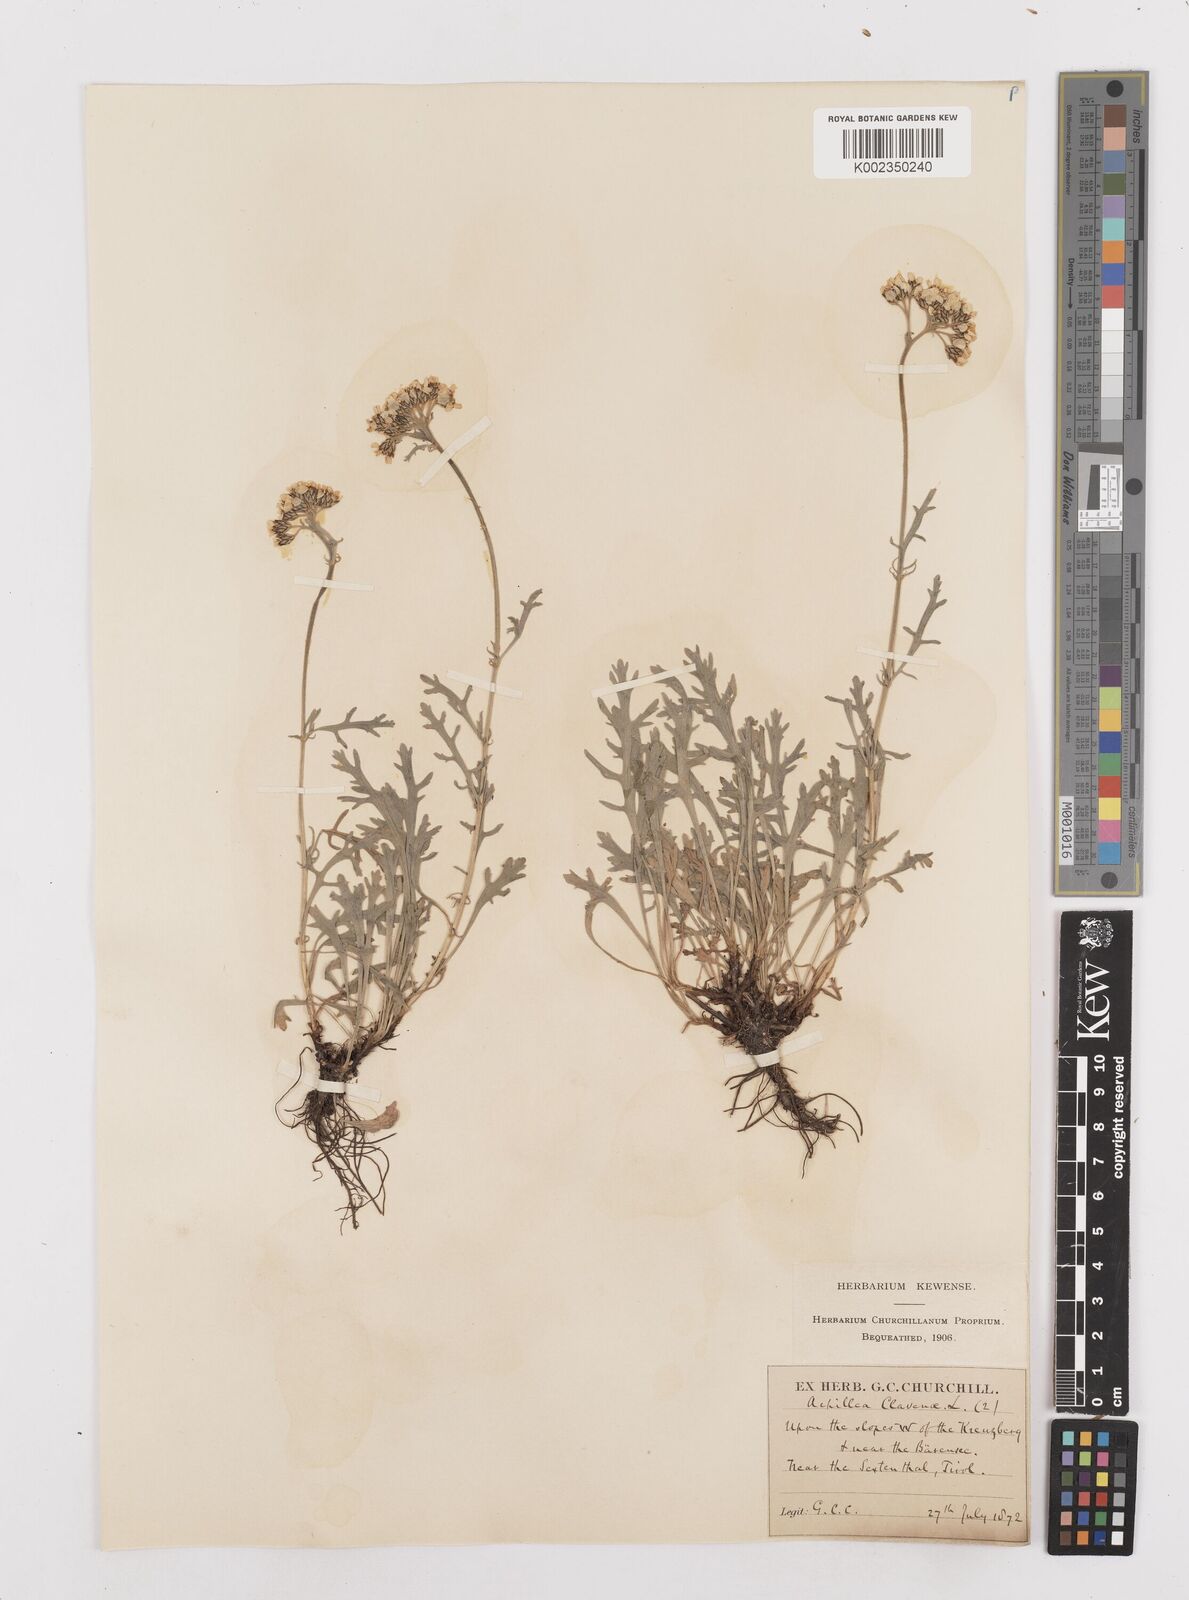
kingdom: Plantae
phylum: Tracheophyta
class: Magnoliopsida
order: Asterales
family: Asteraceae
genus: Achillea
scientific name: Achillea clavennae
